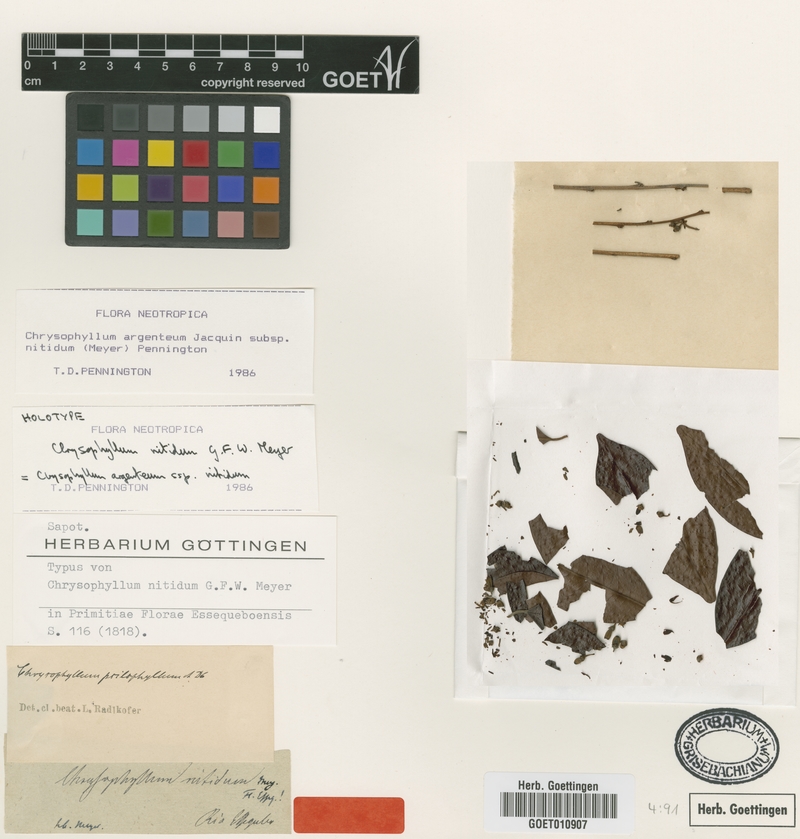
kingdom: Plantae
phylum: Tracheophyta
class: Magnoliopsida
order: Ericales
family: Sapotaceae
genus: Chrysophyllum
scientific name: Chrysophyllum argenteum
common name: Smooth star apple
